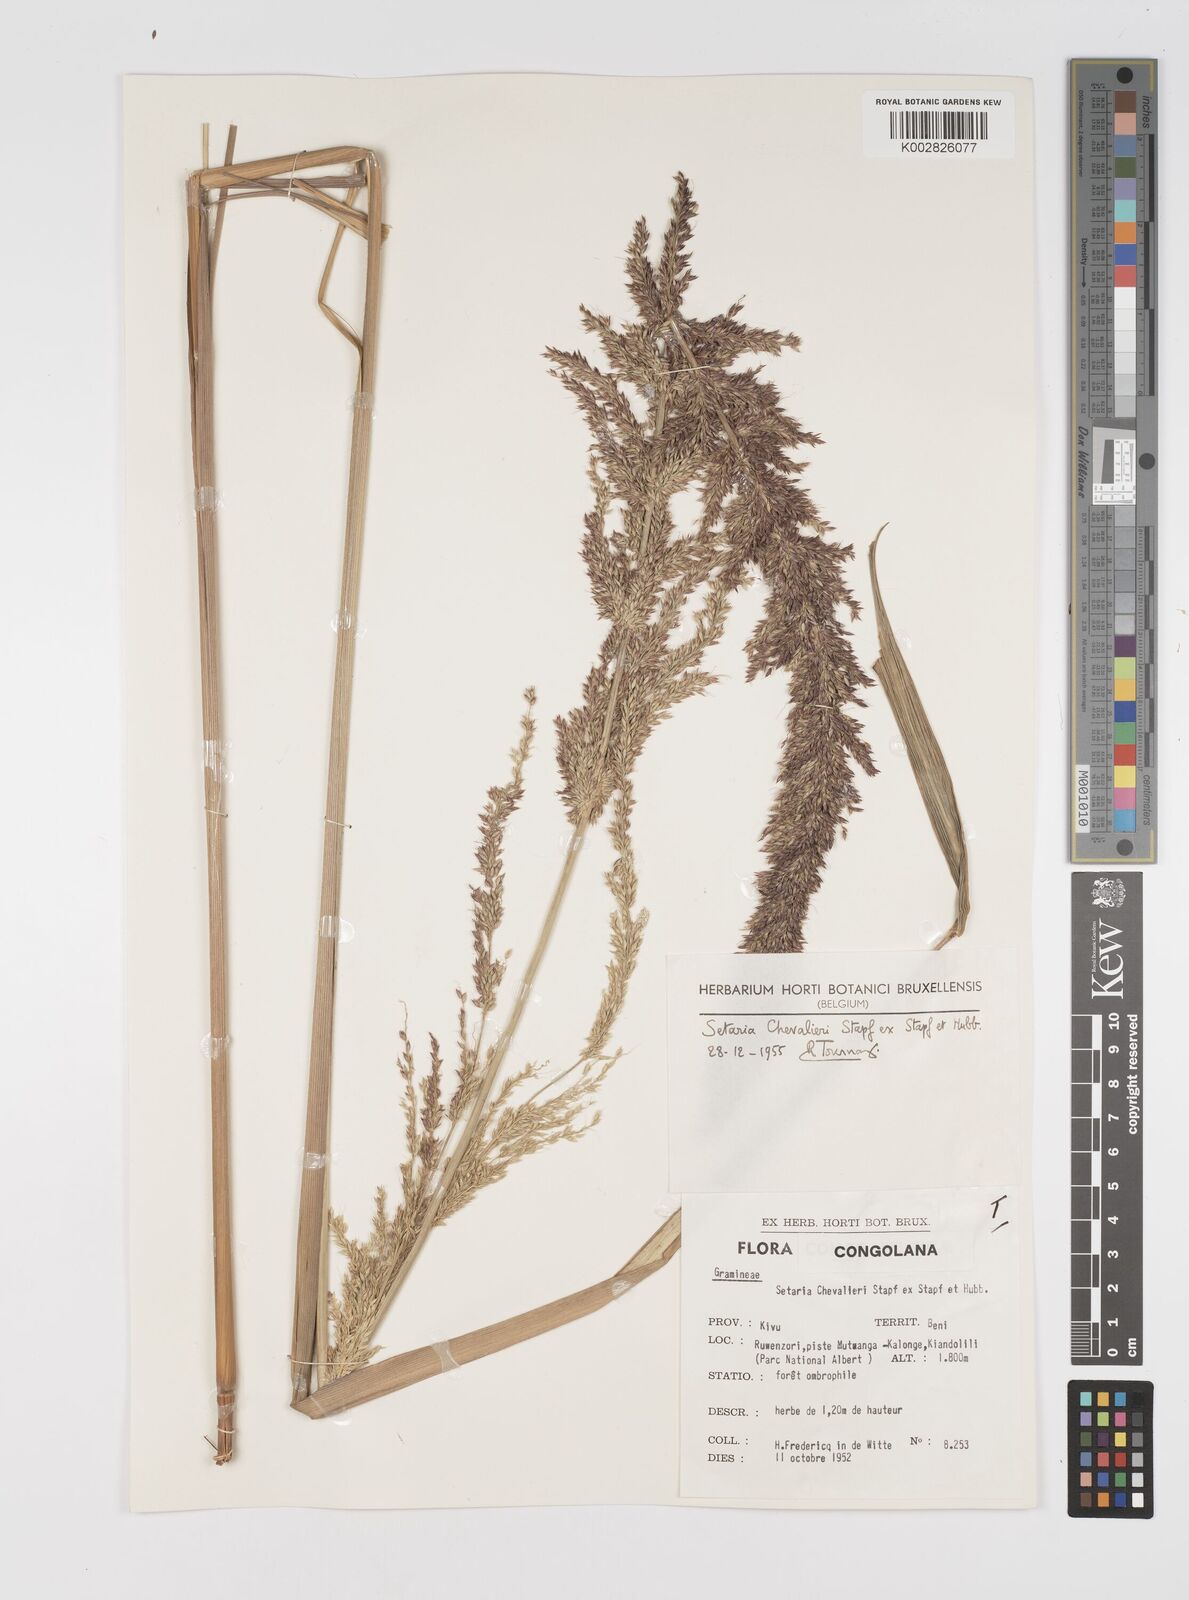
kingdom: Plantae
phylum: Tracheophyta
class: Liliopsida
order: Poales
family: Poaceae
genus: Setaria
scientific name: Setaria poiretiana
